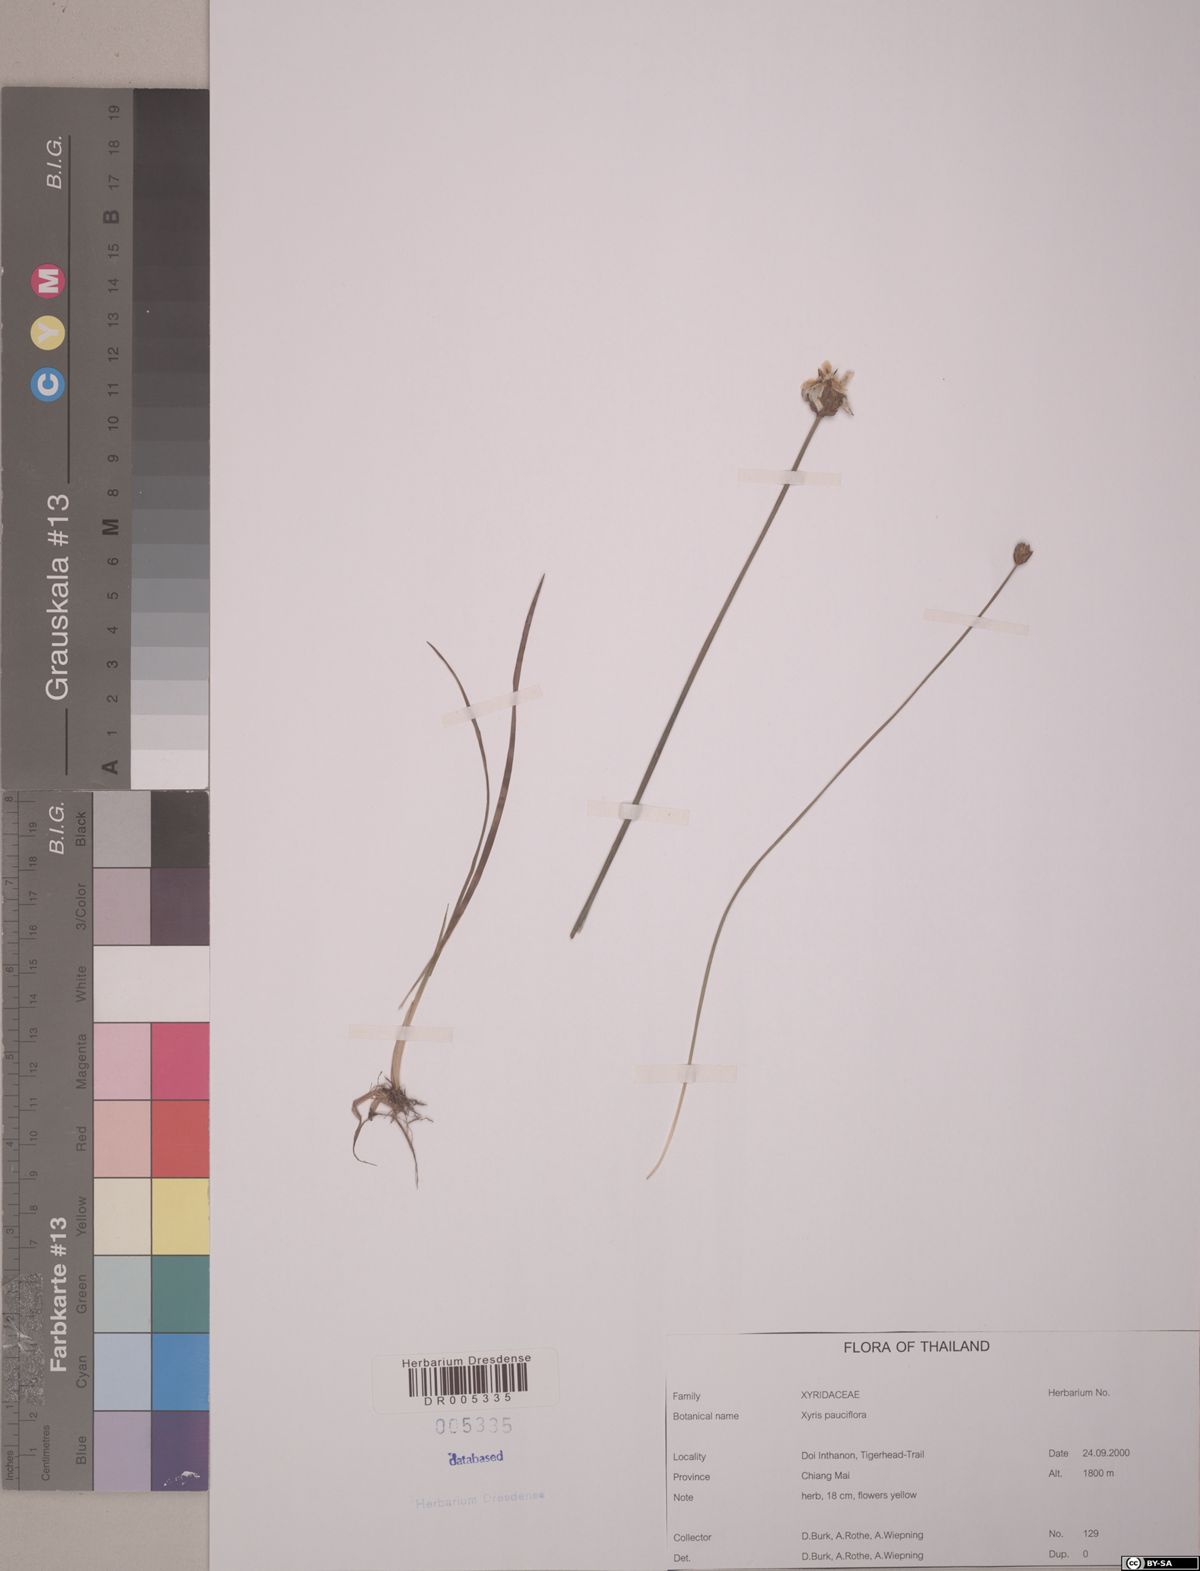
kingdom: Plantae
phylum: Tracheophyta
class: Liliopsida
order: Poales
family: Xyridaceae
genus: Xyris
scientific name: Xyris pauciflora
